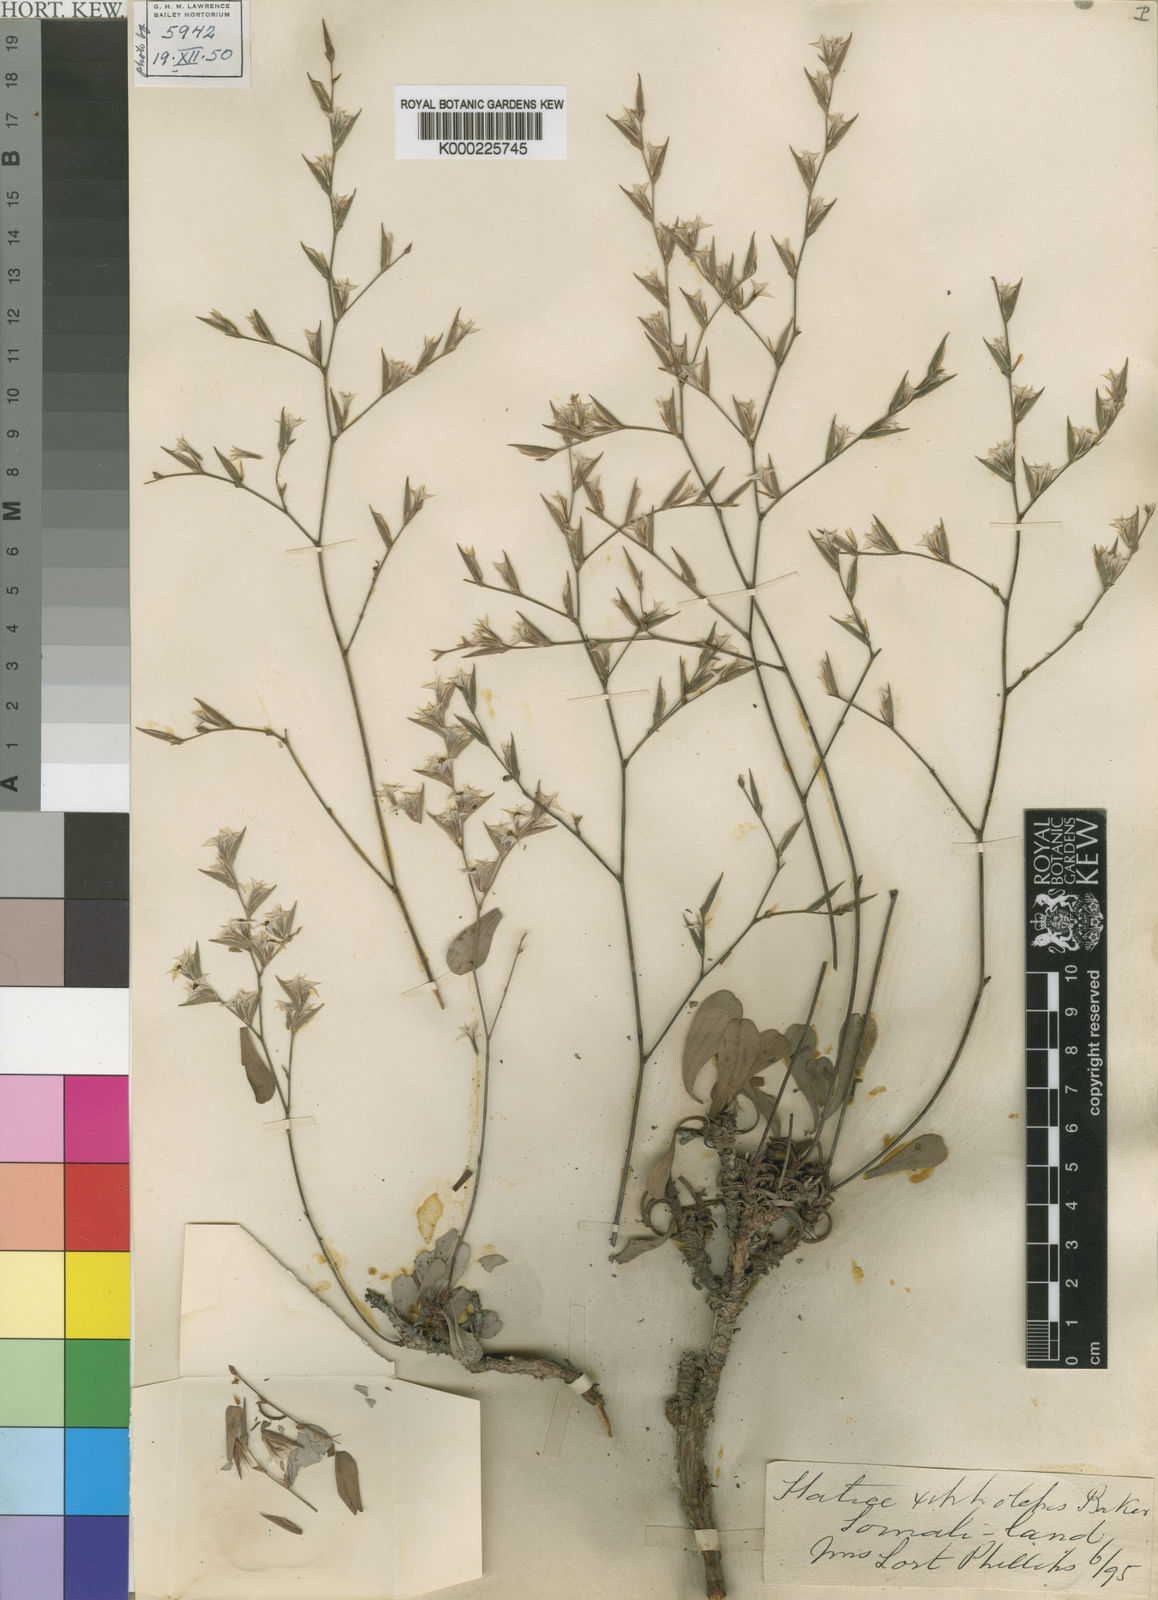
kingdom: Plantae
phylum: Tracheophyta
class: Magnoliopsida
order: Caryophyllales
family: Plumbaginaceae
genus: Limonium
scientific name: Limonium xipholepis
